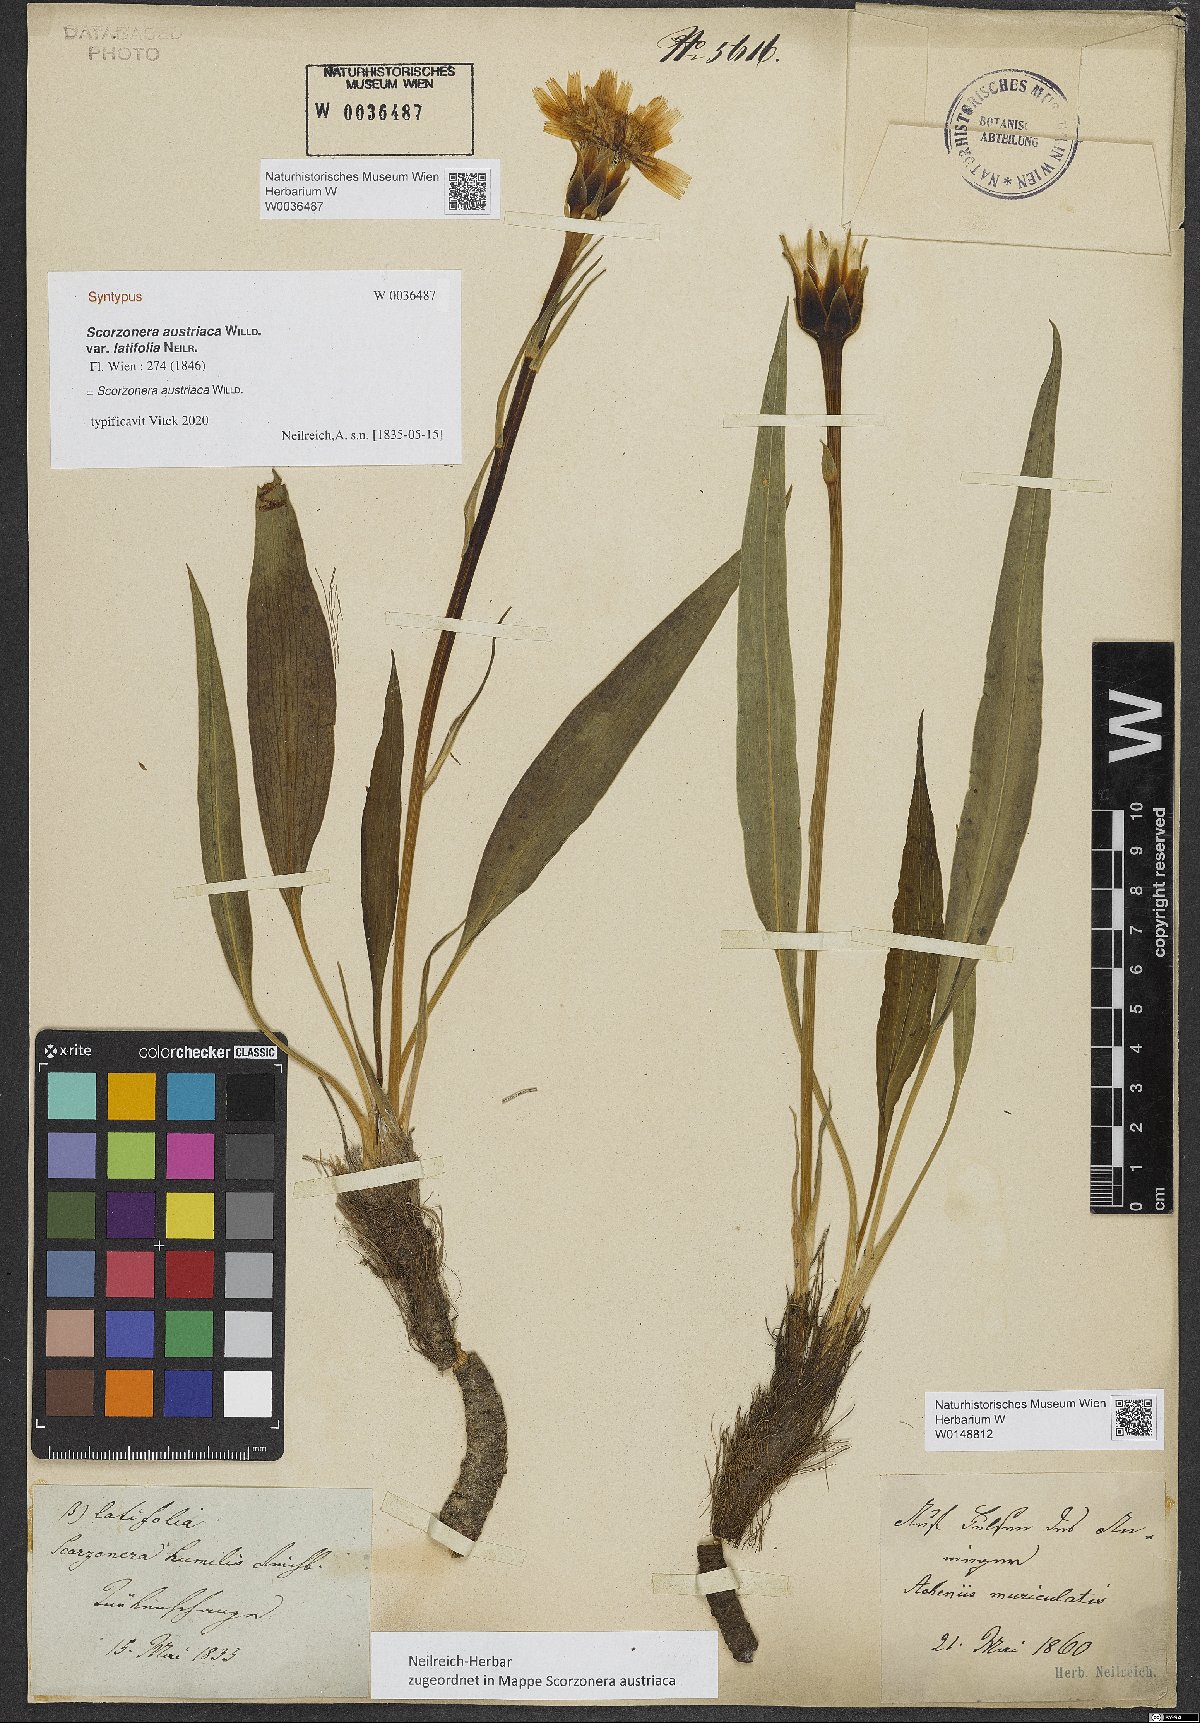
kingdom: Plantae
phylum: Tracheophyta
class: Magnoliopsida
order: Asterales
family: Asteraceae
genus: Takhtajaniantha
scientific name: Takhtajaniantha austriaca
